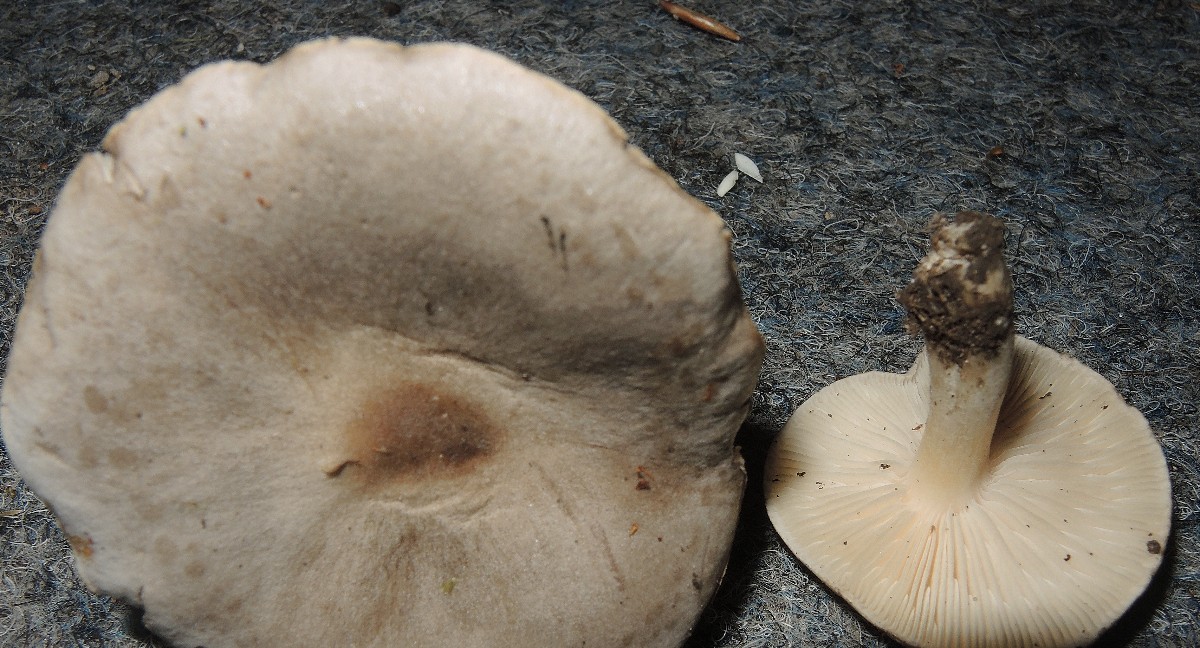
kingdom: Fungi
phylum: Basidiomycota
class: Agaricomycetes
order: Agaricales
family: Tricholomataceae
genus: Melanoleuca
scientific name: Melanoleuca exscissa
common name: gusten munkehat
